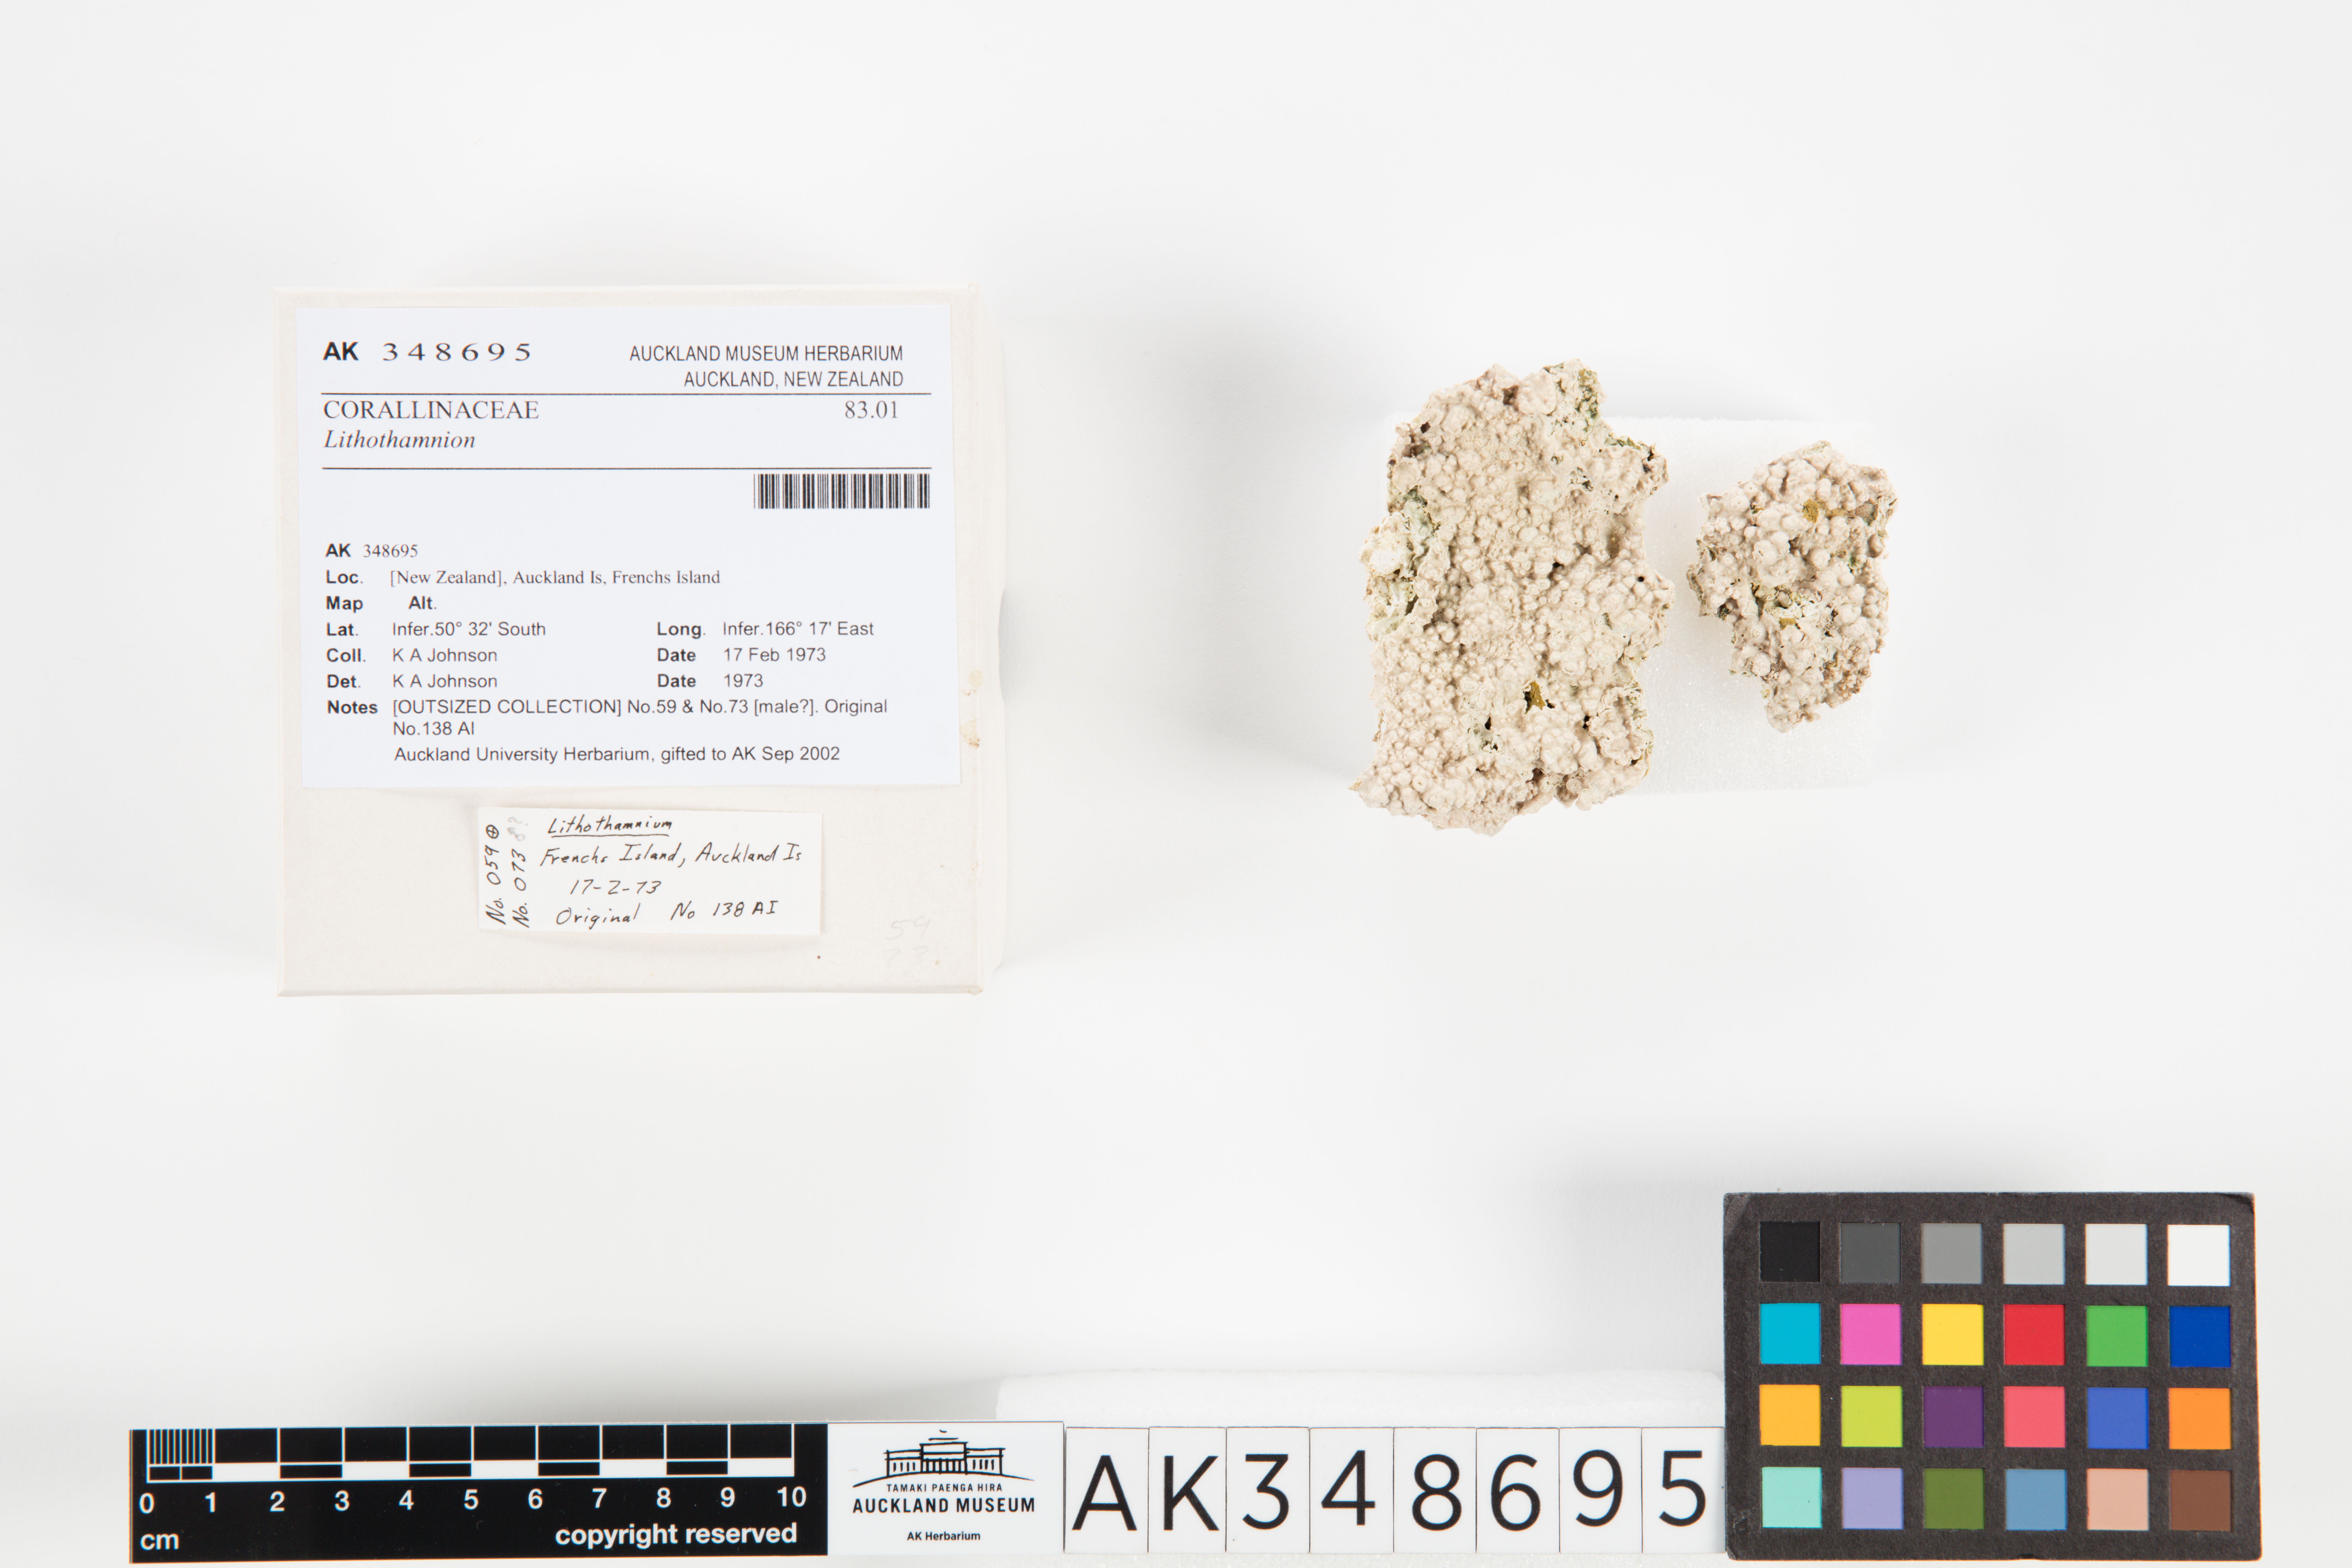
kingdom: Plantae
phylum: Rhodophyta
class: Florideophyceae
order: Corallinales
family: Hapalidiaceae
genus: Lithothamnion
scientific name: Lithothamnion
